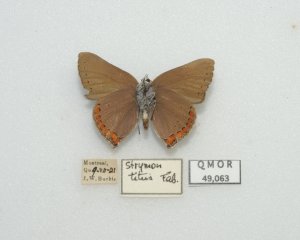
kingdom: Animalia
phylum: Arthropoda
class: Insecta
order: Lepidoptera
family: Lycaenidae
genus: Harkenclenus
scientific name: Harkenclenus titus
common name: Coral Hairstreak
